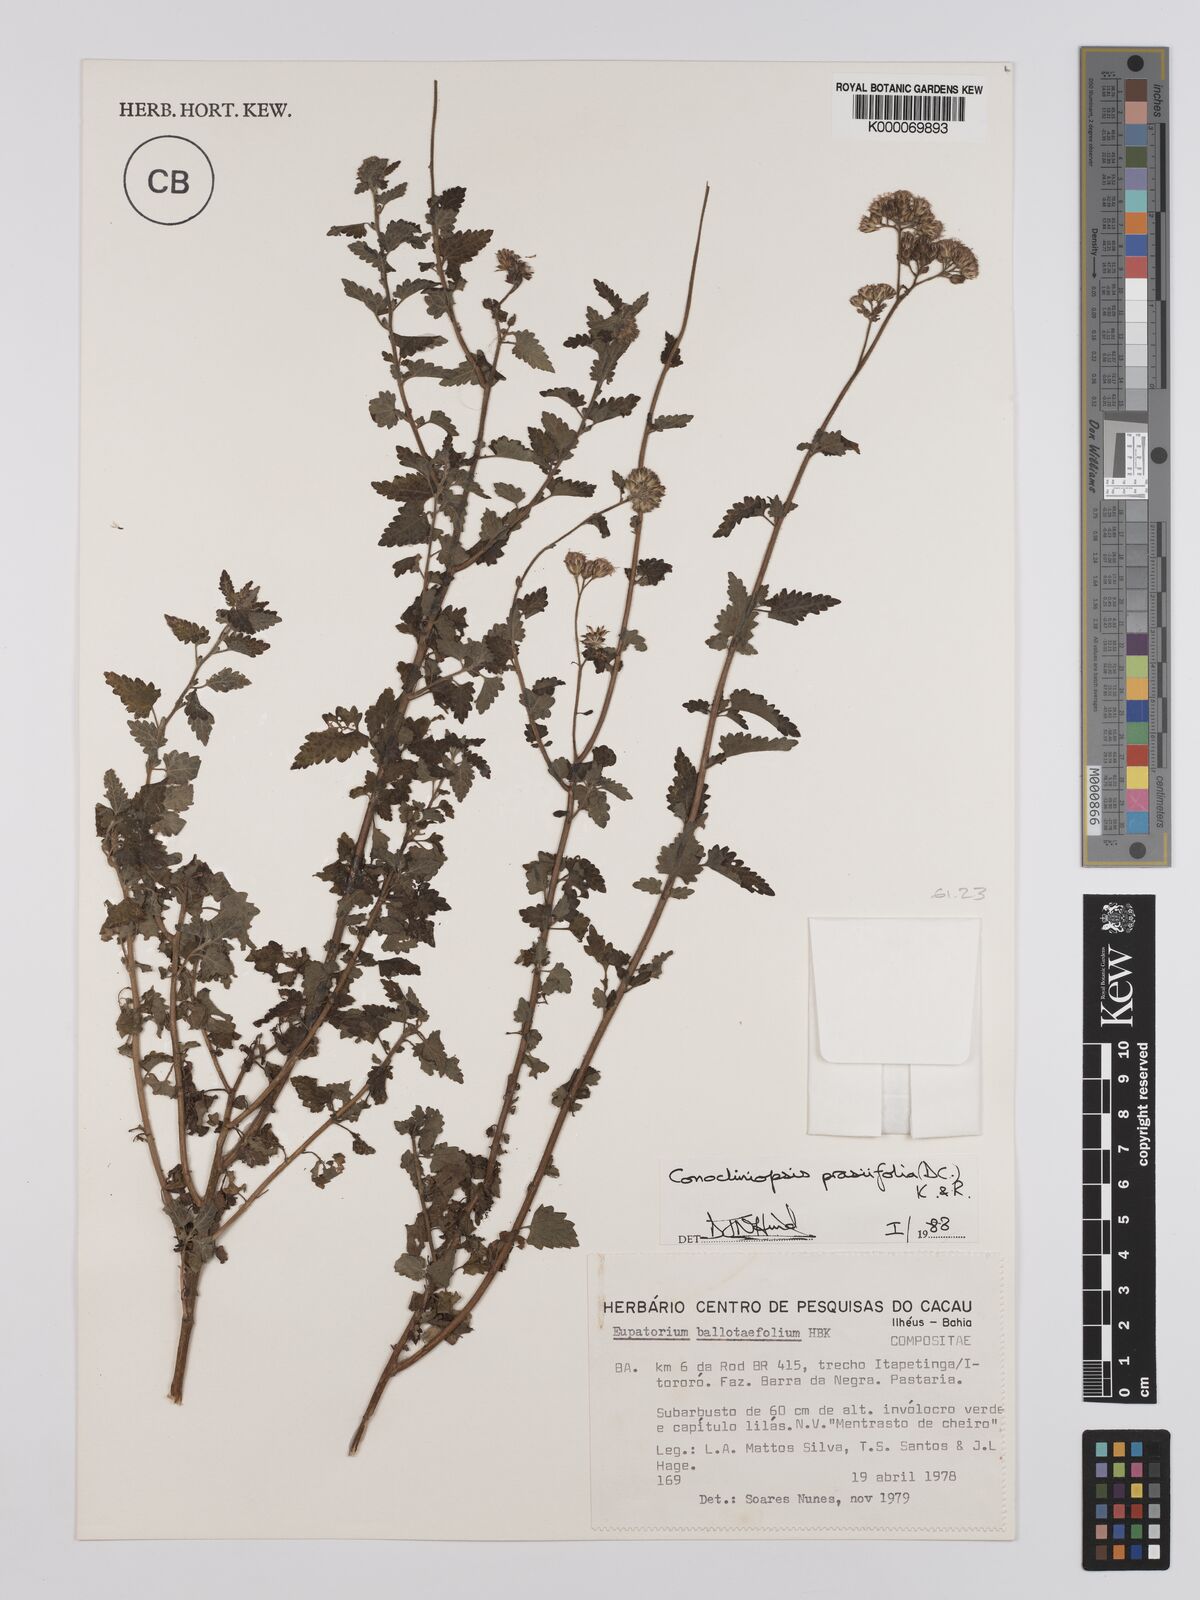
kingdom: Plantae
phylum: Tracheophyta
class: Magnoliopsida
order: Asterales
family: Asteraceae
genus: Conocliniopsis
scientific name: Conocliniopsis grossedentata
